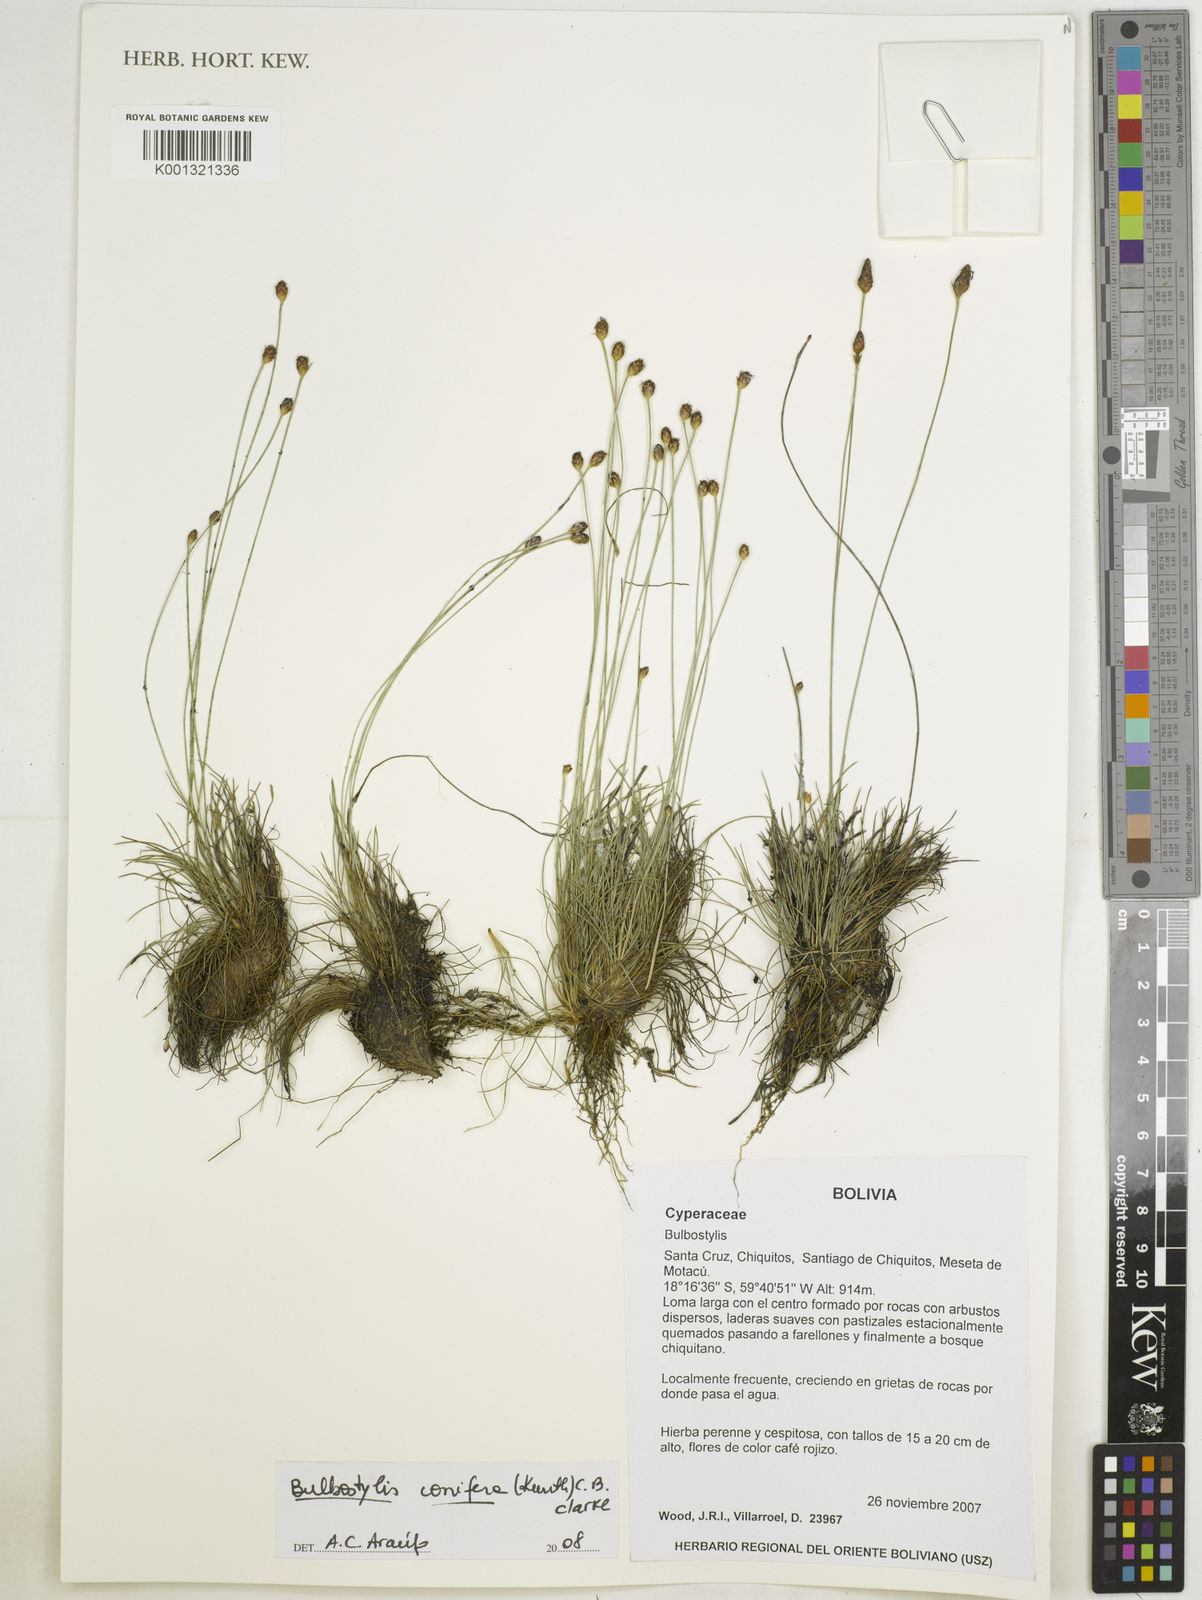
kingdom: Plantae
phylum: Tracheophyta
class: Liliopsida
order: Poales
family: Cyperaceae
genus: Bulbostylis
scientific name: Bulbostylis conifera
